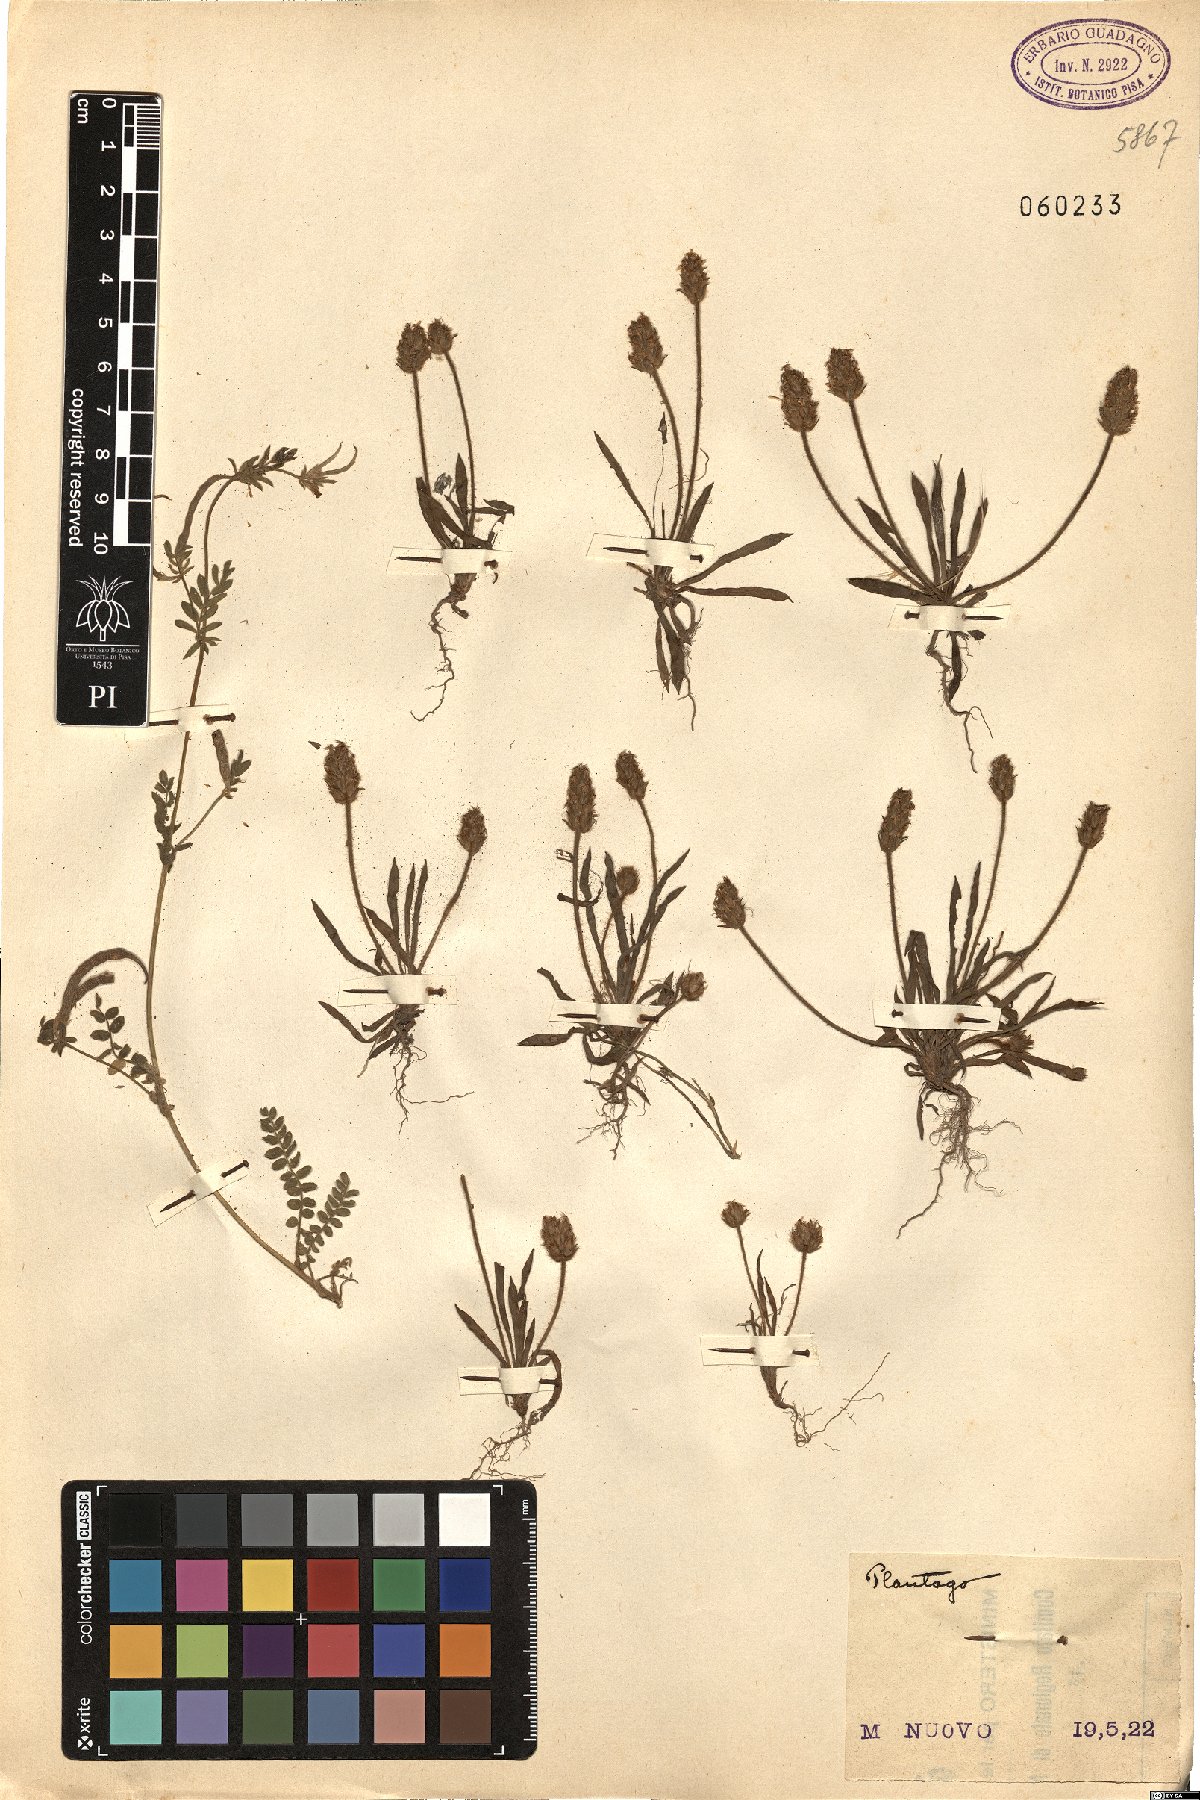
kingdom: Plantae
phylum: Tracheophyta
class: Magnoliopsida
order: Lamiales
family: Plantaginaceae
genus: Plantago
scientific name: Plantago
